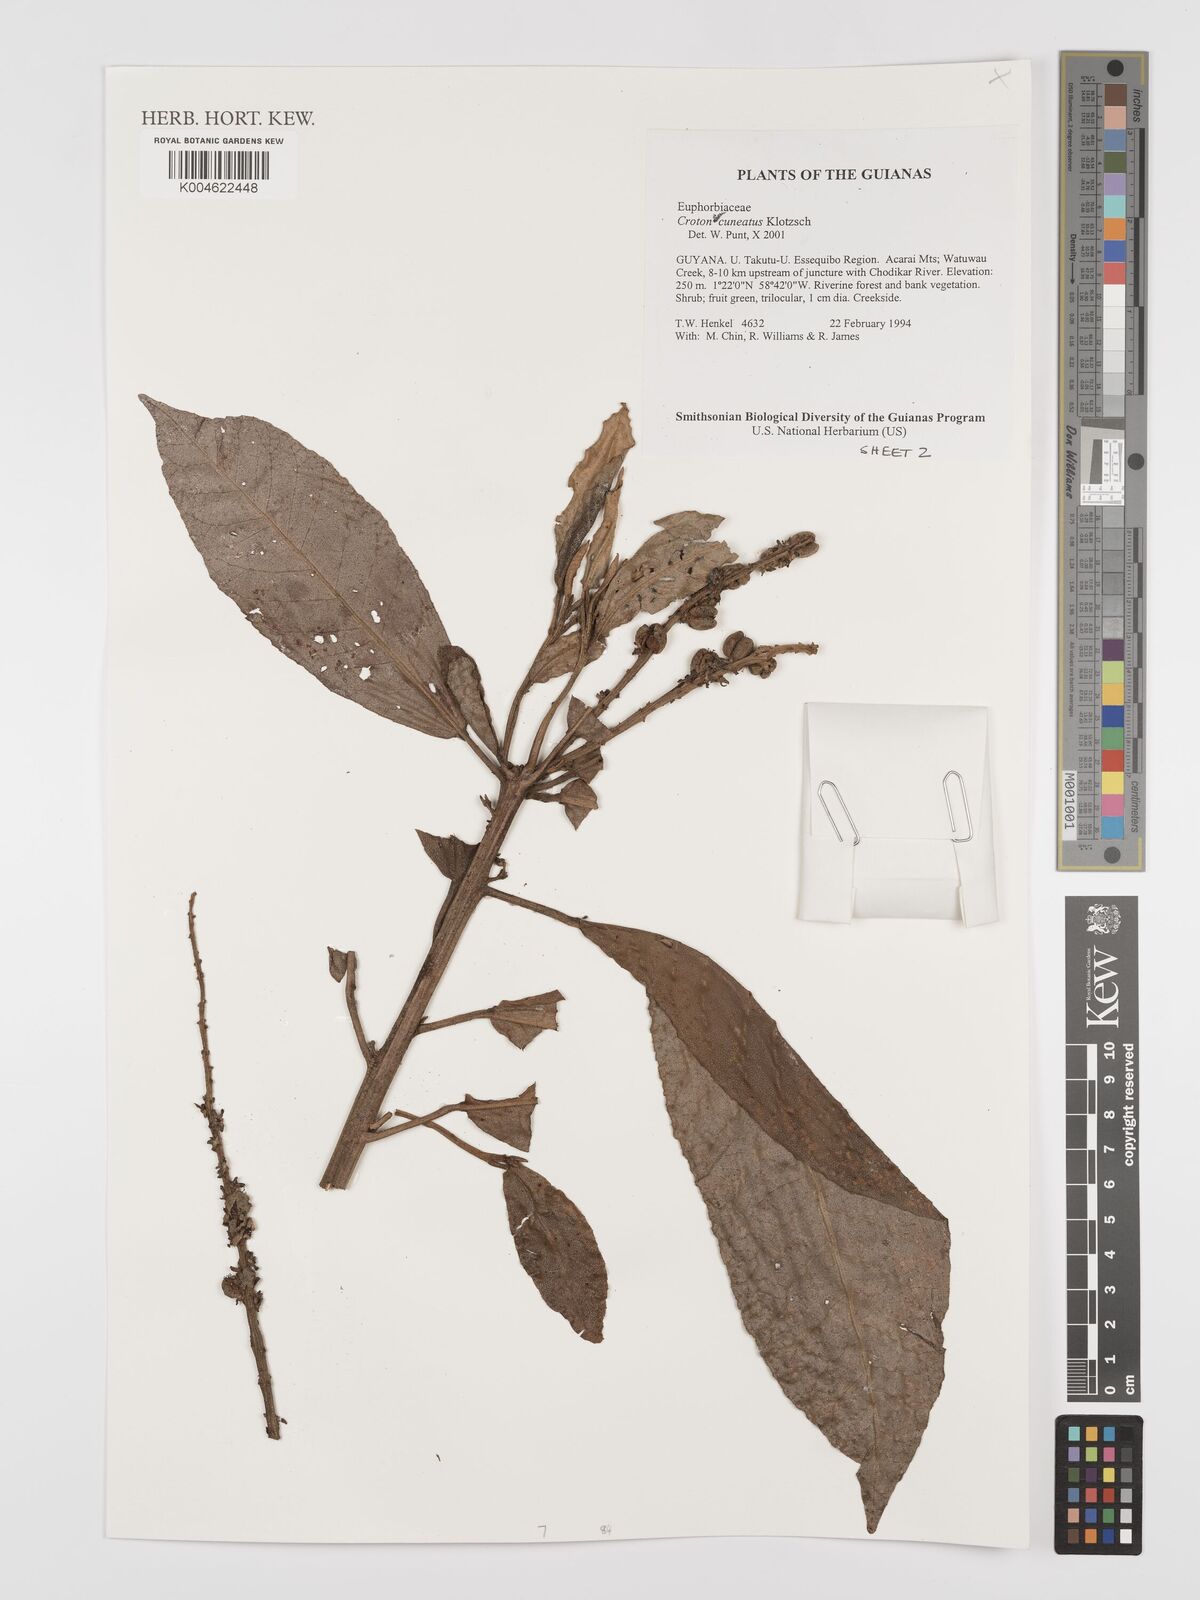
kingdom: Plantae
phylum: Tracheophyta
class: Magnoliopsida
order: Malpighiales
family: Euphorbiaceae
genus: Croton
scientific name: Croton
